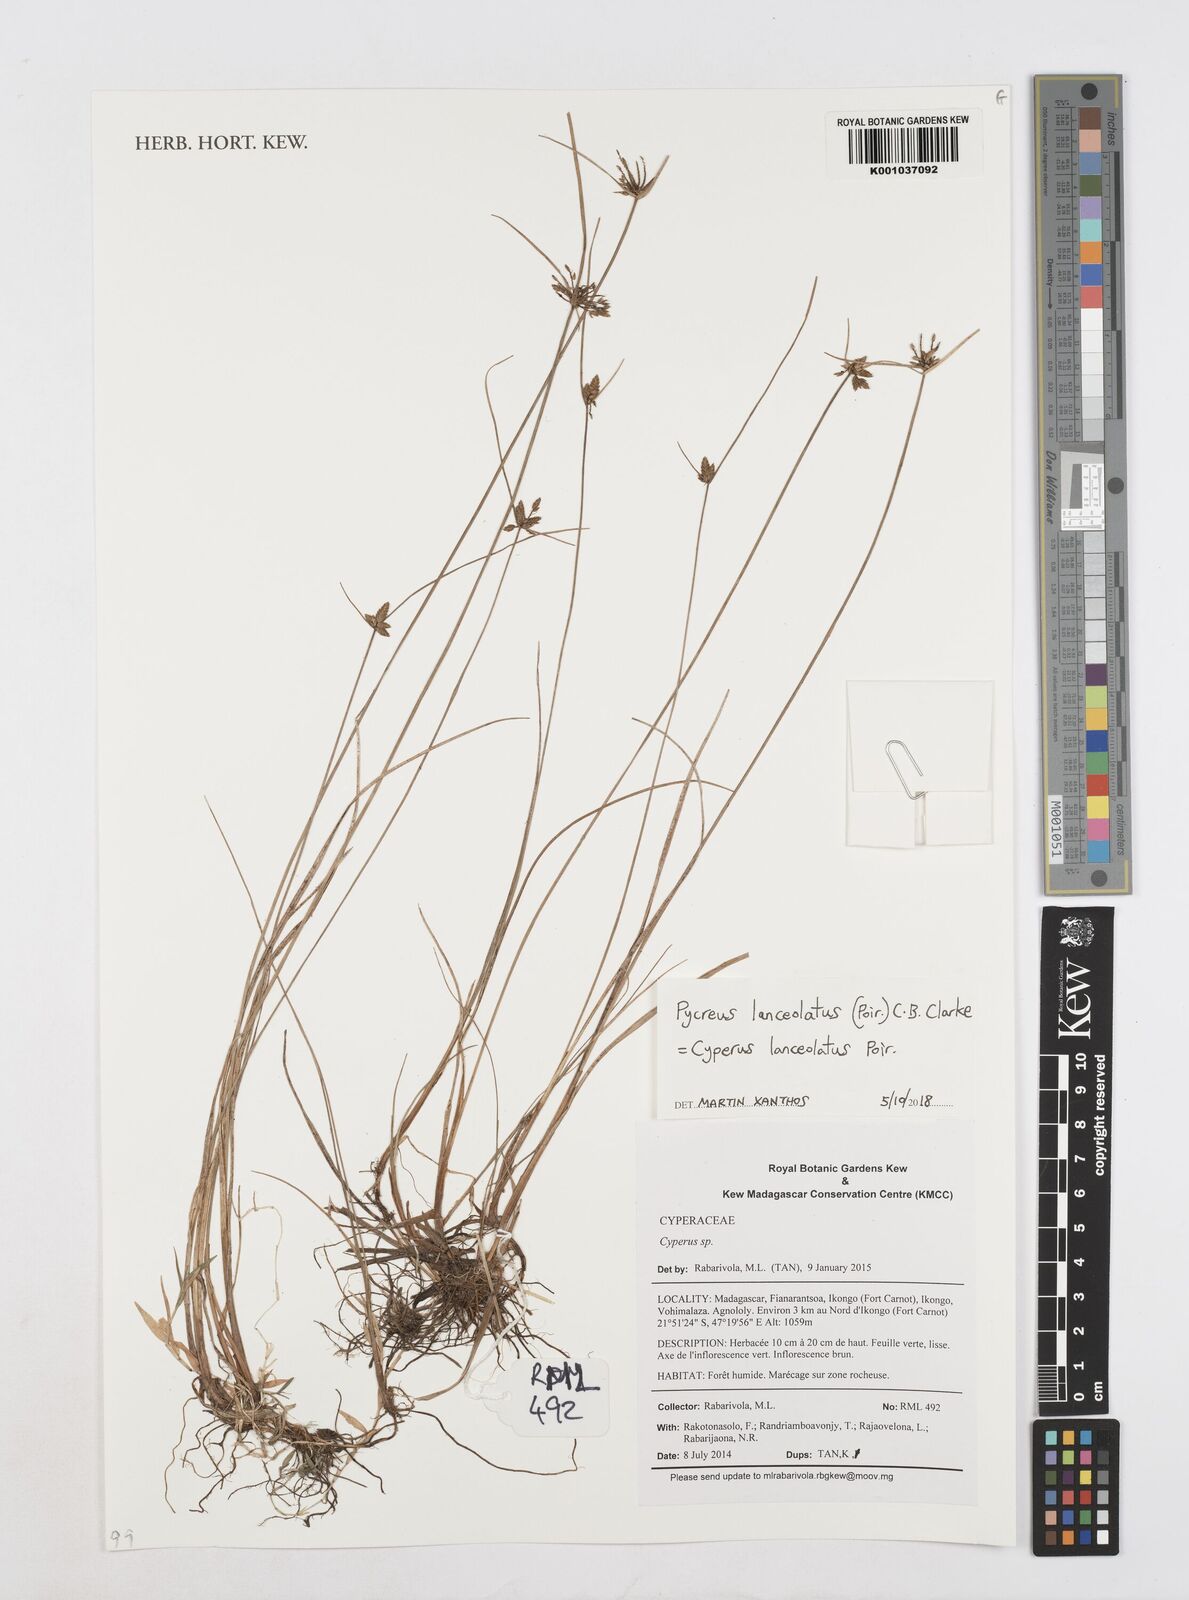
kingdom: Plantae
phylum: Tracheophyta
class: Liliopsida
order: Poales
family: Cyperaceae
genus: Cyperus
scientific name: Cyperus
